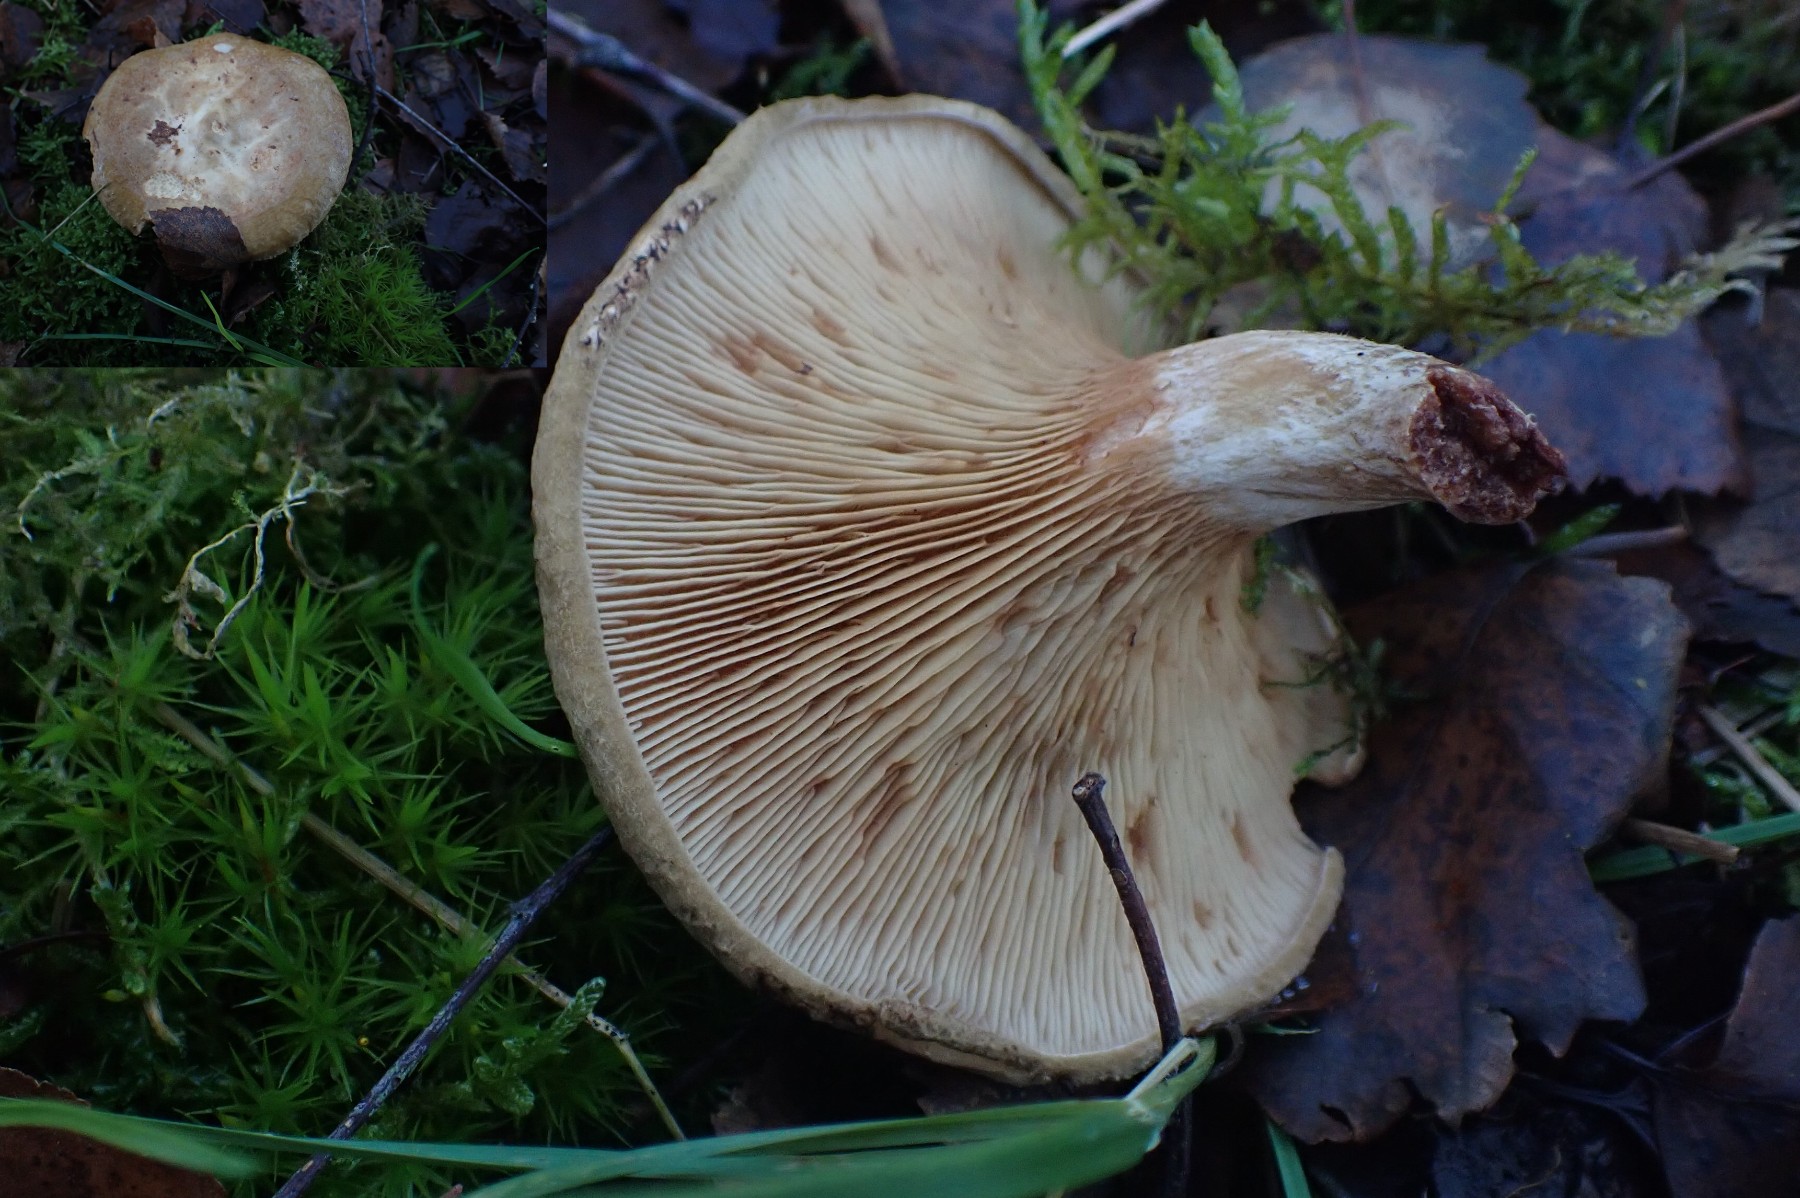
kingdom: Fungi
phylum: Basidiomycota
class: Agaricomycetes
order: Boletales
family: Paxillaceae
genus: Paxillus
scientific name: Paxillus involutus
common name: almindelig netbladhat
